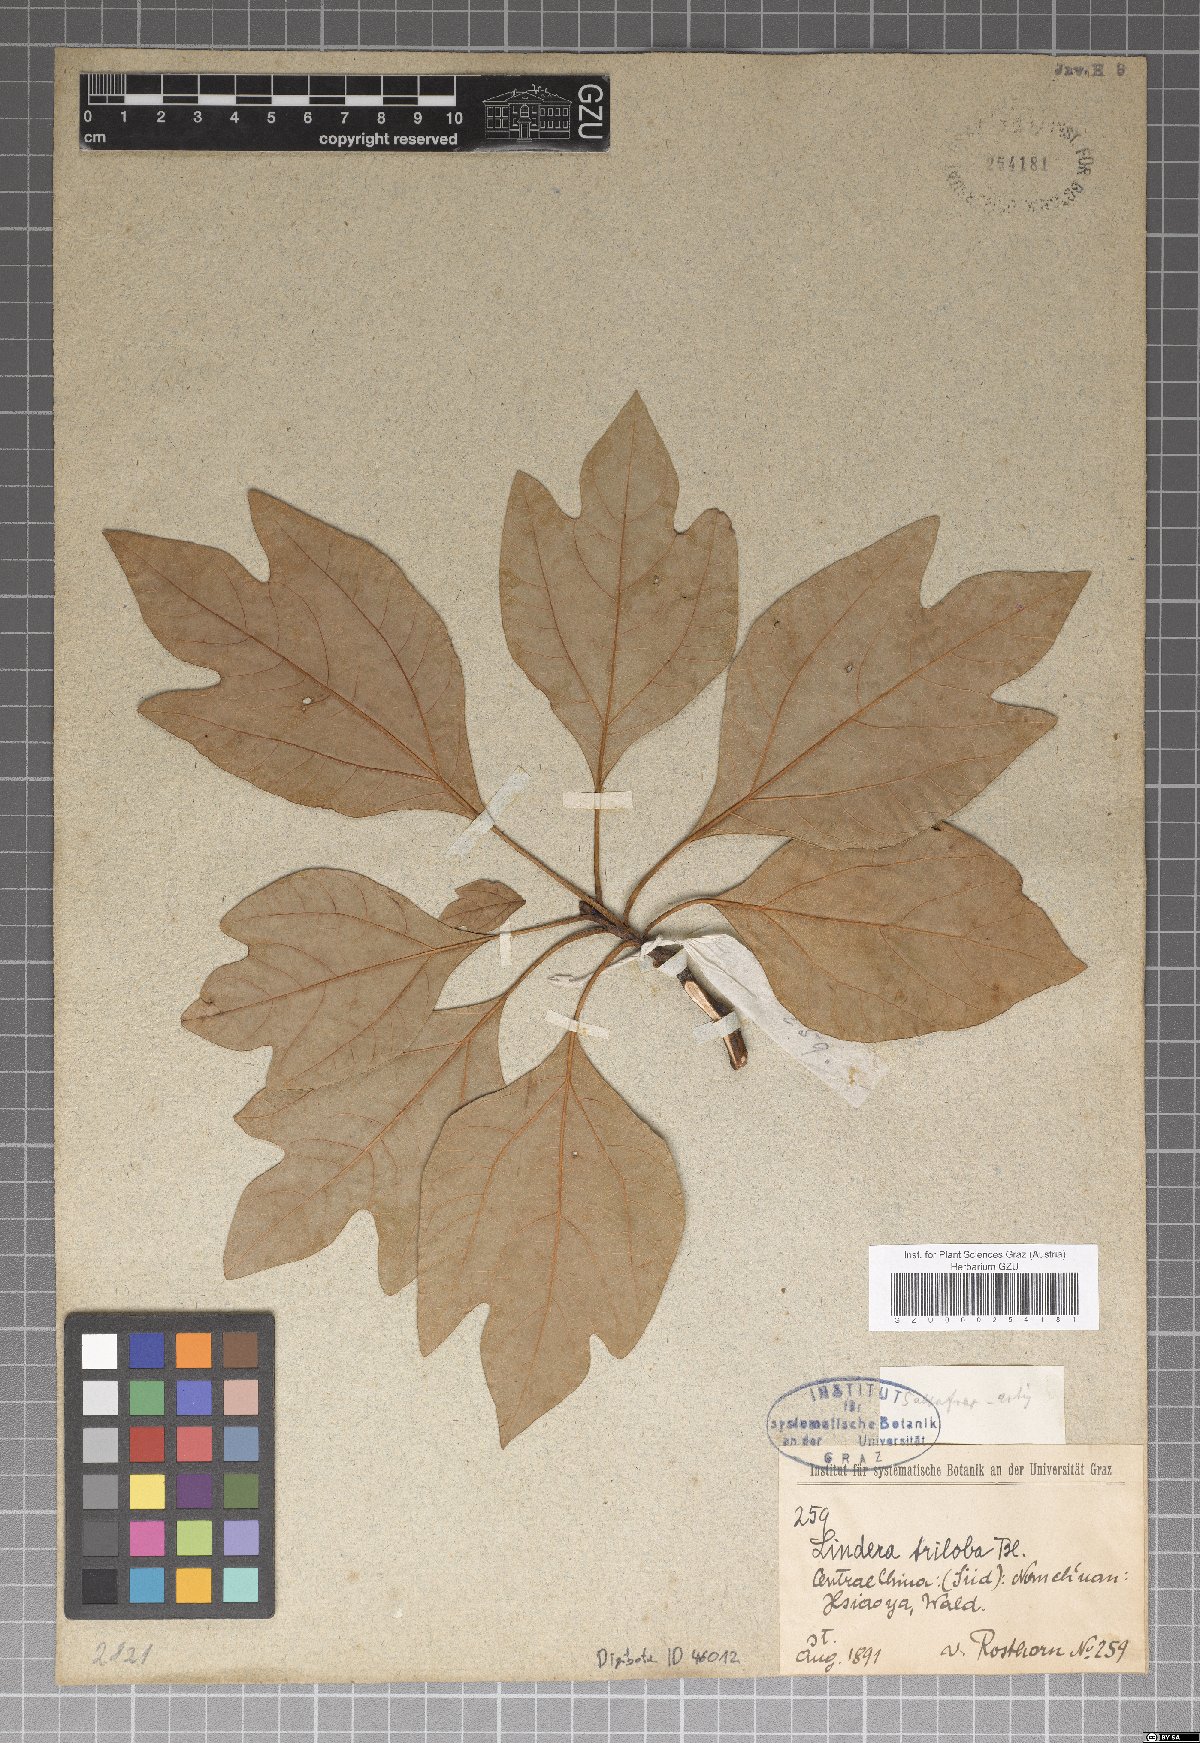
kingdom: Plantae
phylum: Tracheophyta
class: Magnoliopsida
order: Laurales
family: Lauraceae
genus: Lindera
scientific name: Lindera triloba
